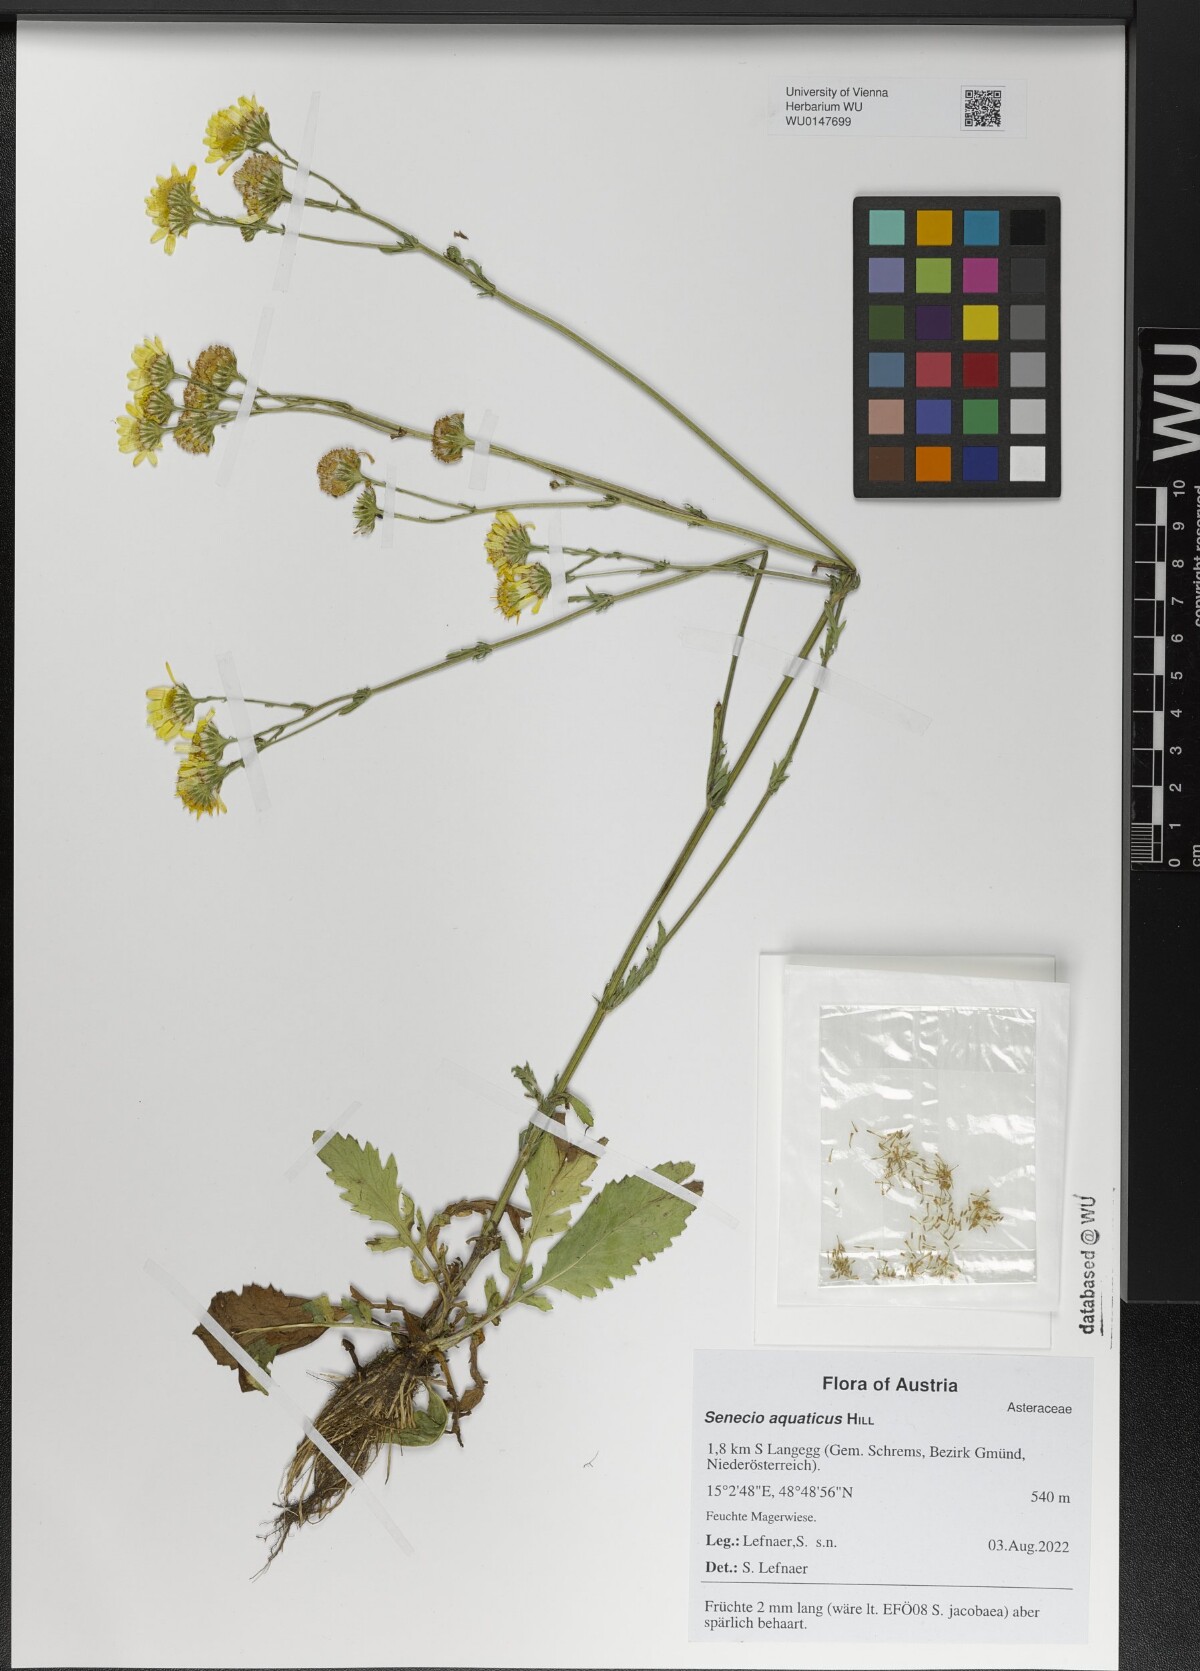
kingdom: Plantae
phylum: Tracheophyta
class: Magnoliopsida
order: Asterales
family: Asteraceae
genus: Jacobaea
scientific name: Jacobaea aquatica
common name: Water ragwort
